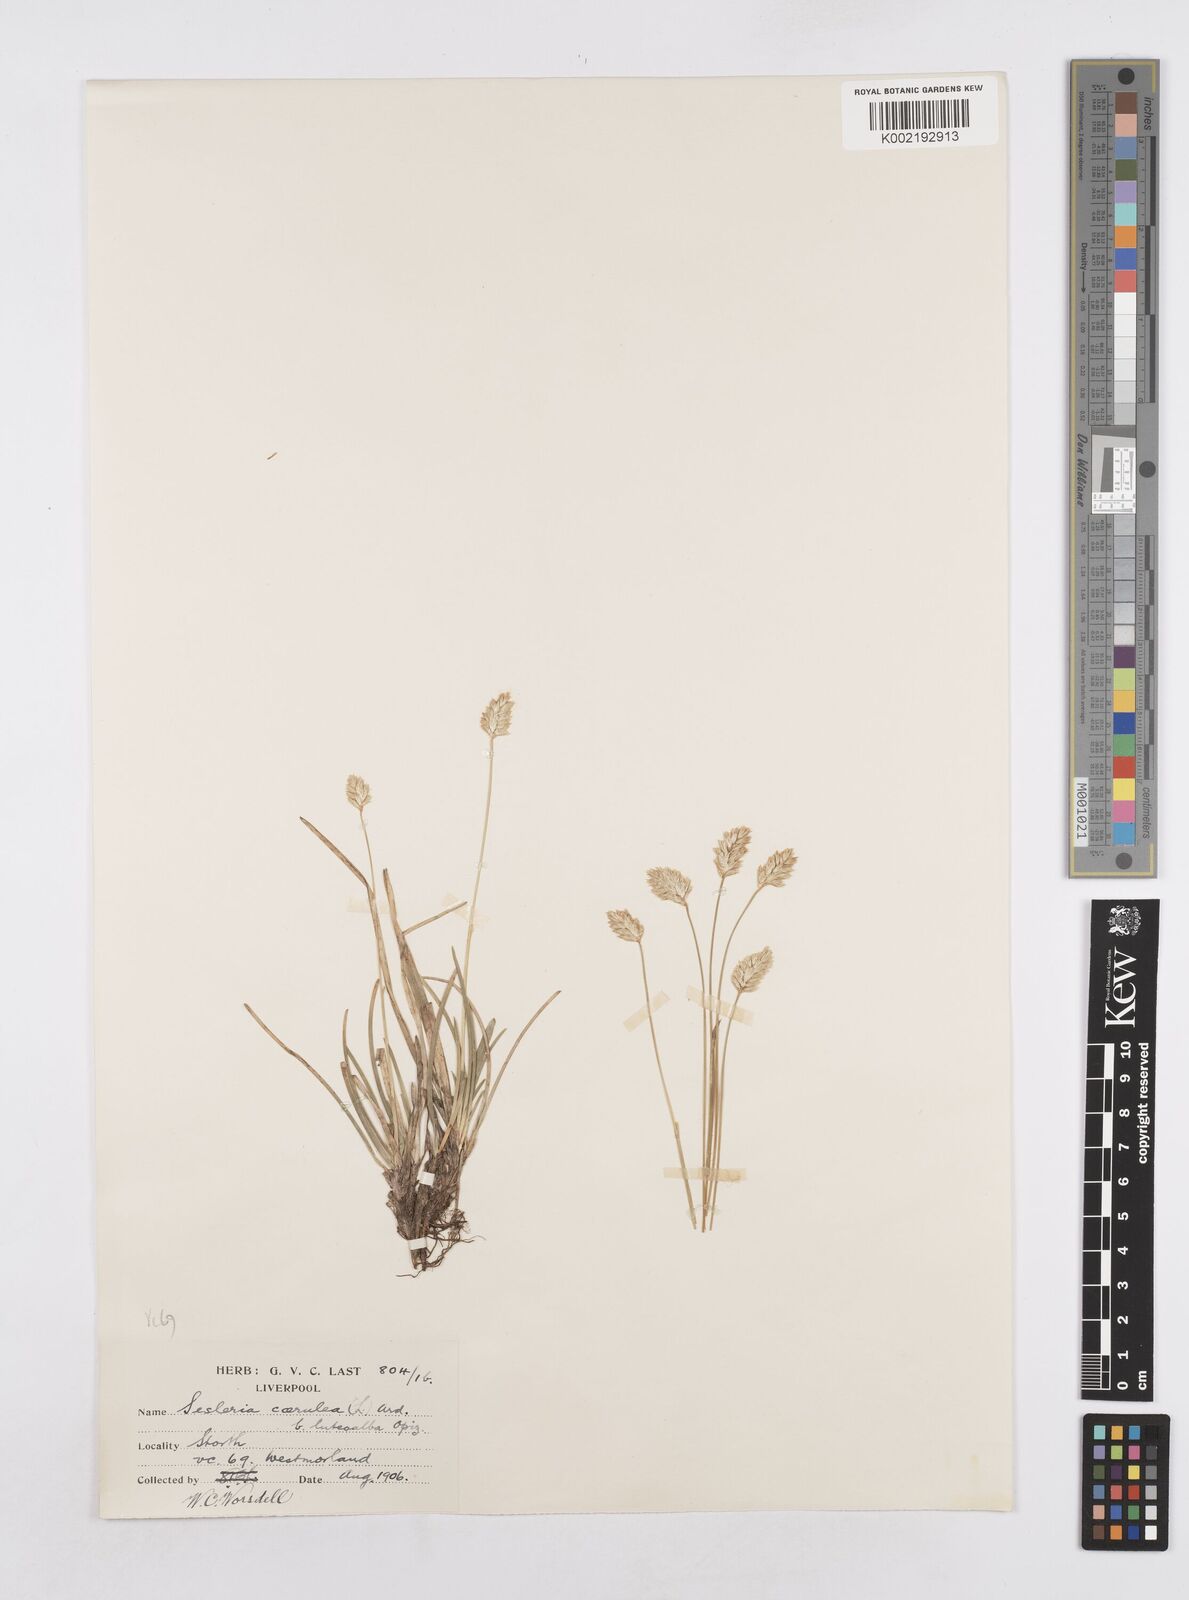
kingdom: Plantae
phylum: Tracheophyta
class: Liliopsida
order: Poales
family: Poaceae
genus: Sesleria
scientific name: Sesleria caerulea
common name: Blue moor-grass
